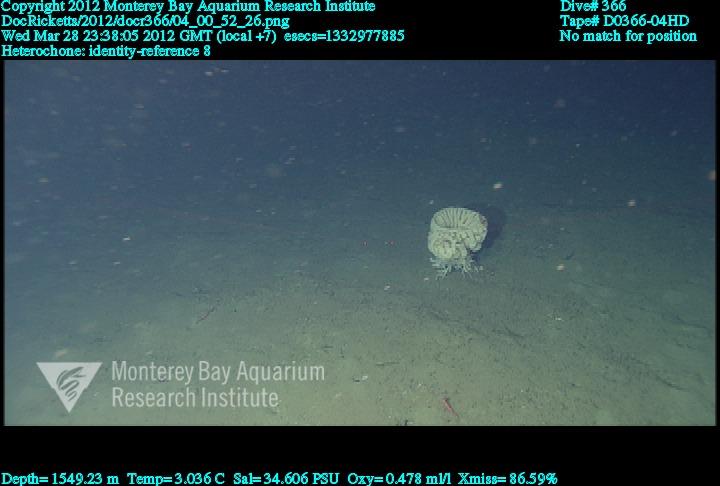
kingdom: Animalia
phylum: Porifera
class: Hexactinellida
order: Sceptrulophora
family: Aphrocallistidae
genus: Heterochone
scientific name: Heterochone
